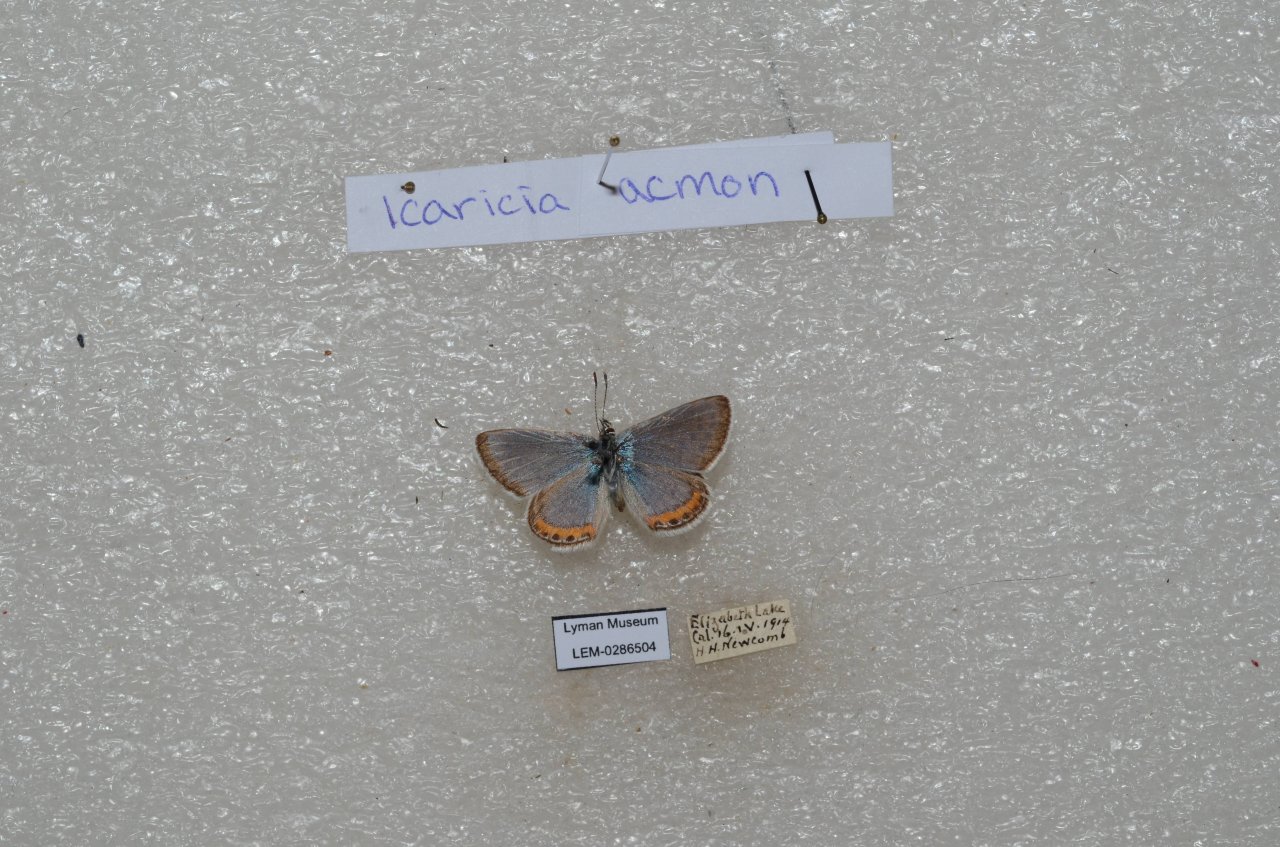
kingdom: Animalia
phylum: Arthropoda
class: Insecta
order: Lepidoptera
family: Lycaenidae
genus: Plebejus
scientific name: Plebejus acmon
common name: Acmon Blue
